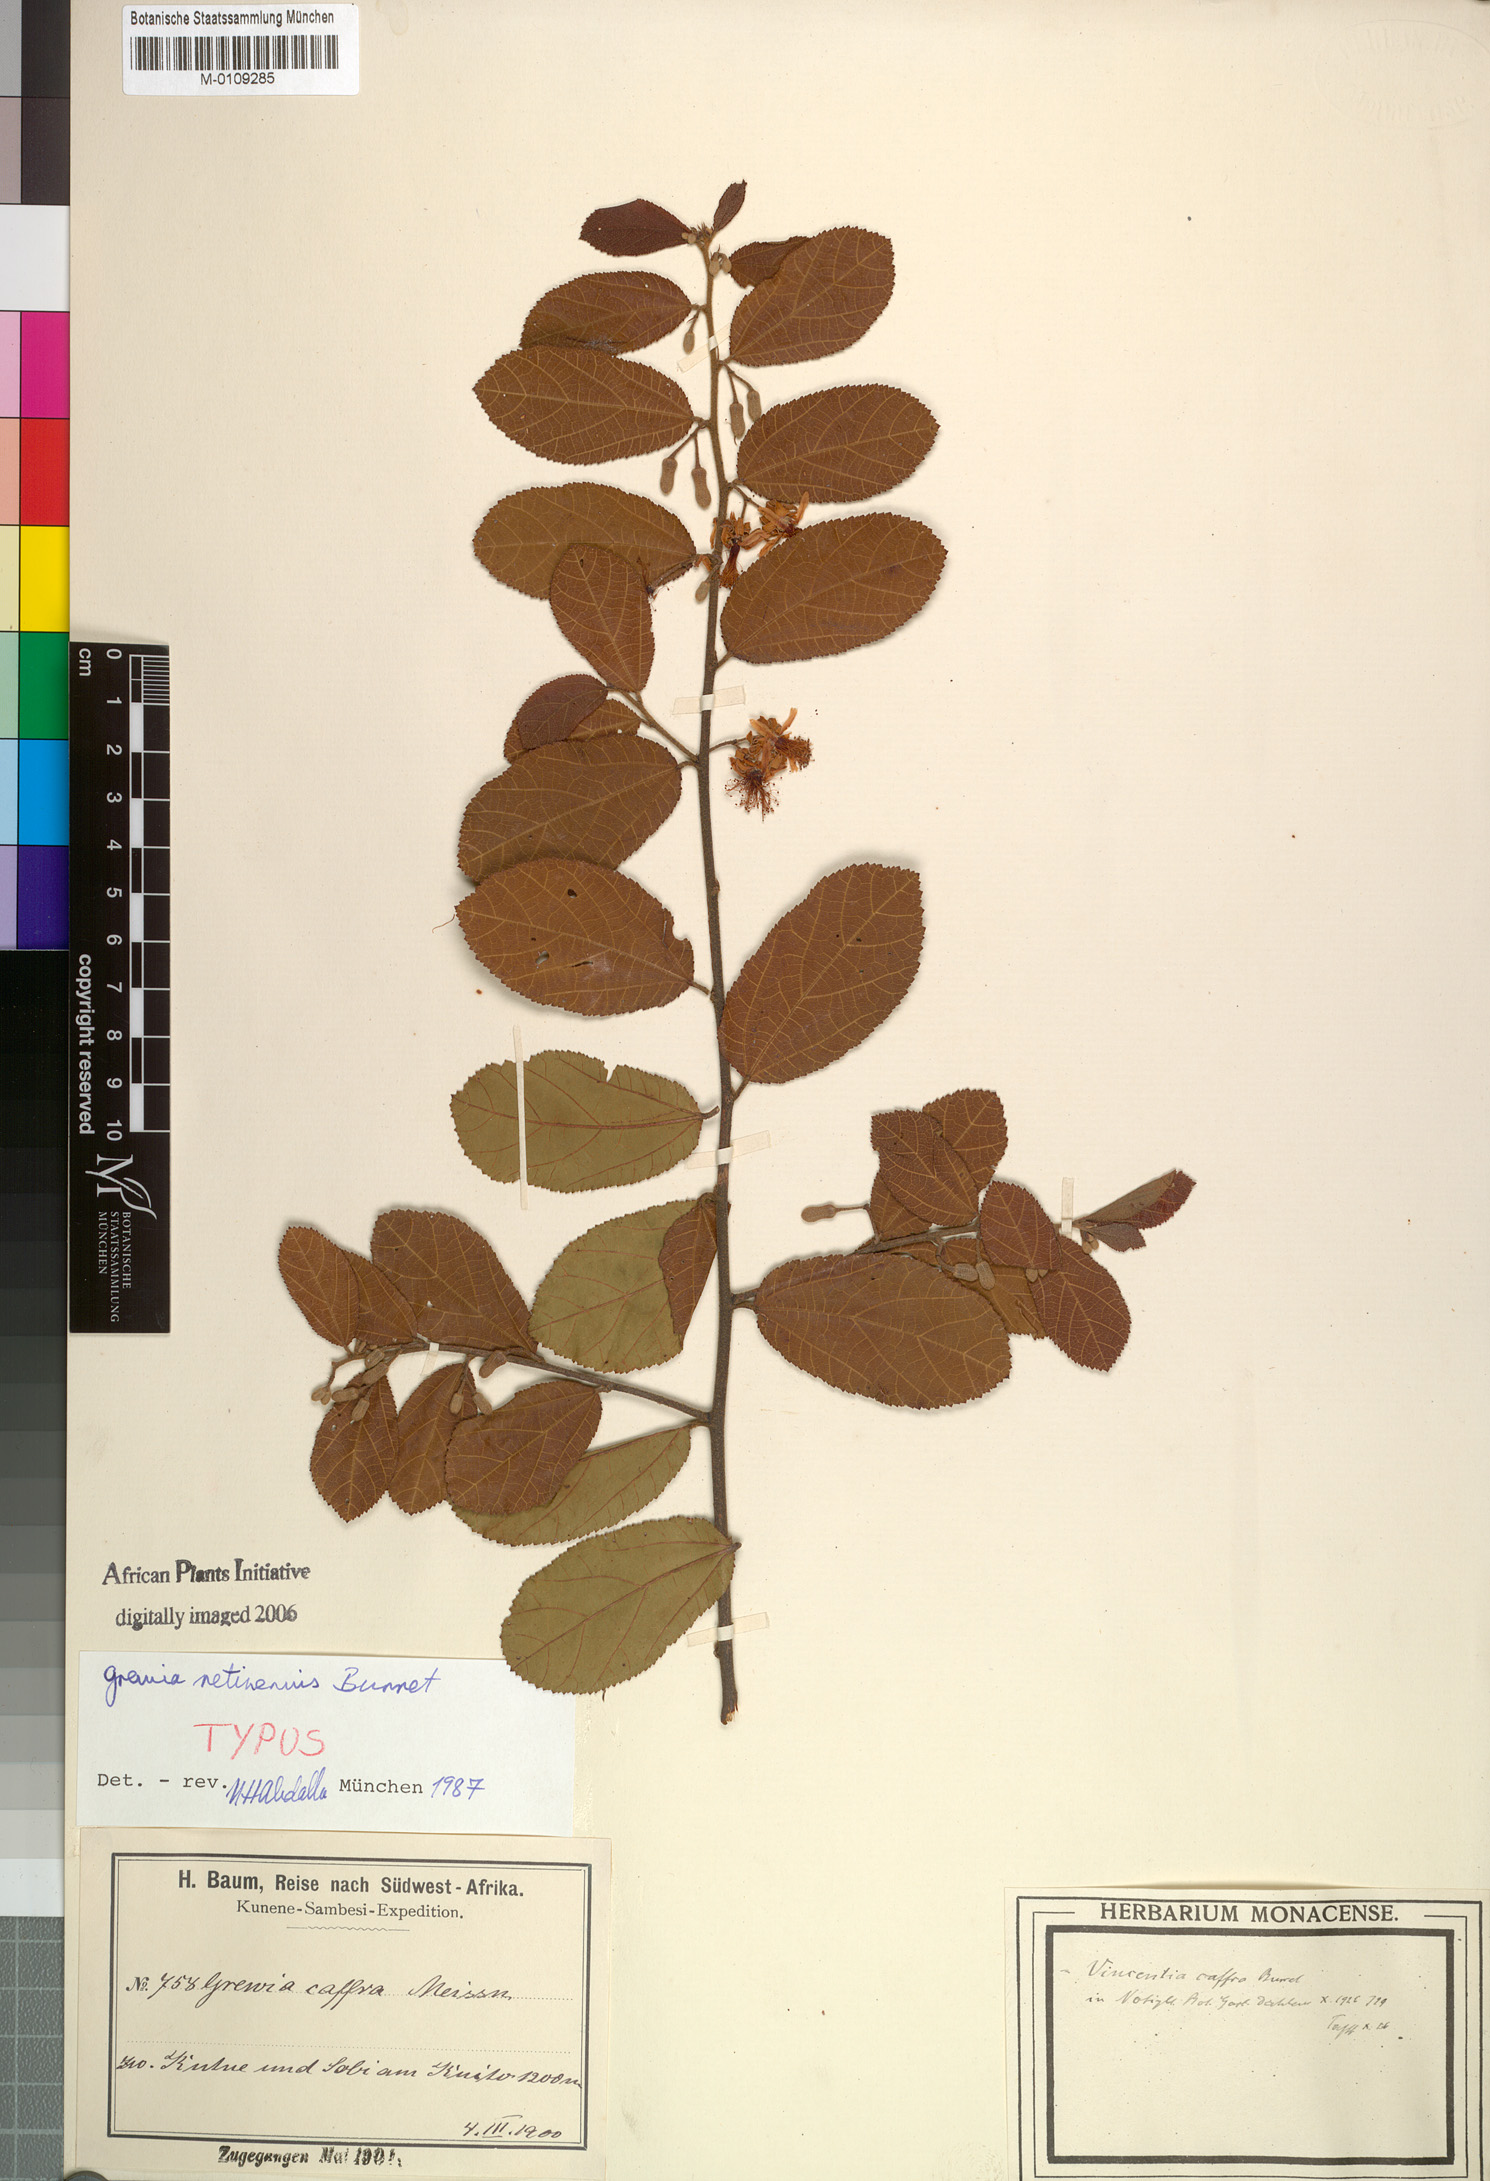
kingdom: Plantae
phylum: Tracheophyta
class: Magnoliopsida
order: Malvales
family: Malvaceae
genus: Grewia
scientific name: Grewia retinervis
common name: Kalahari raisin
